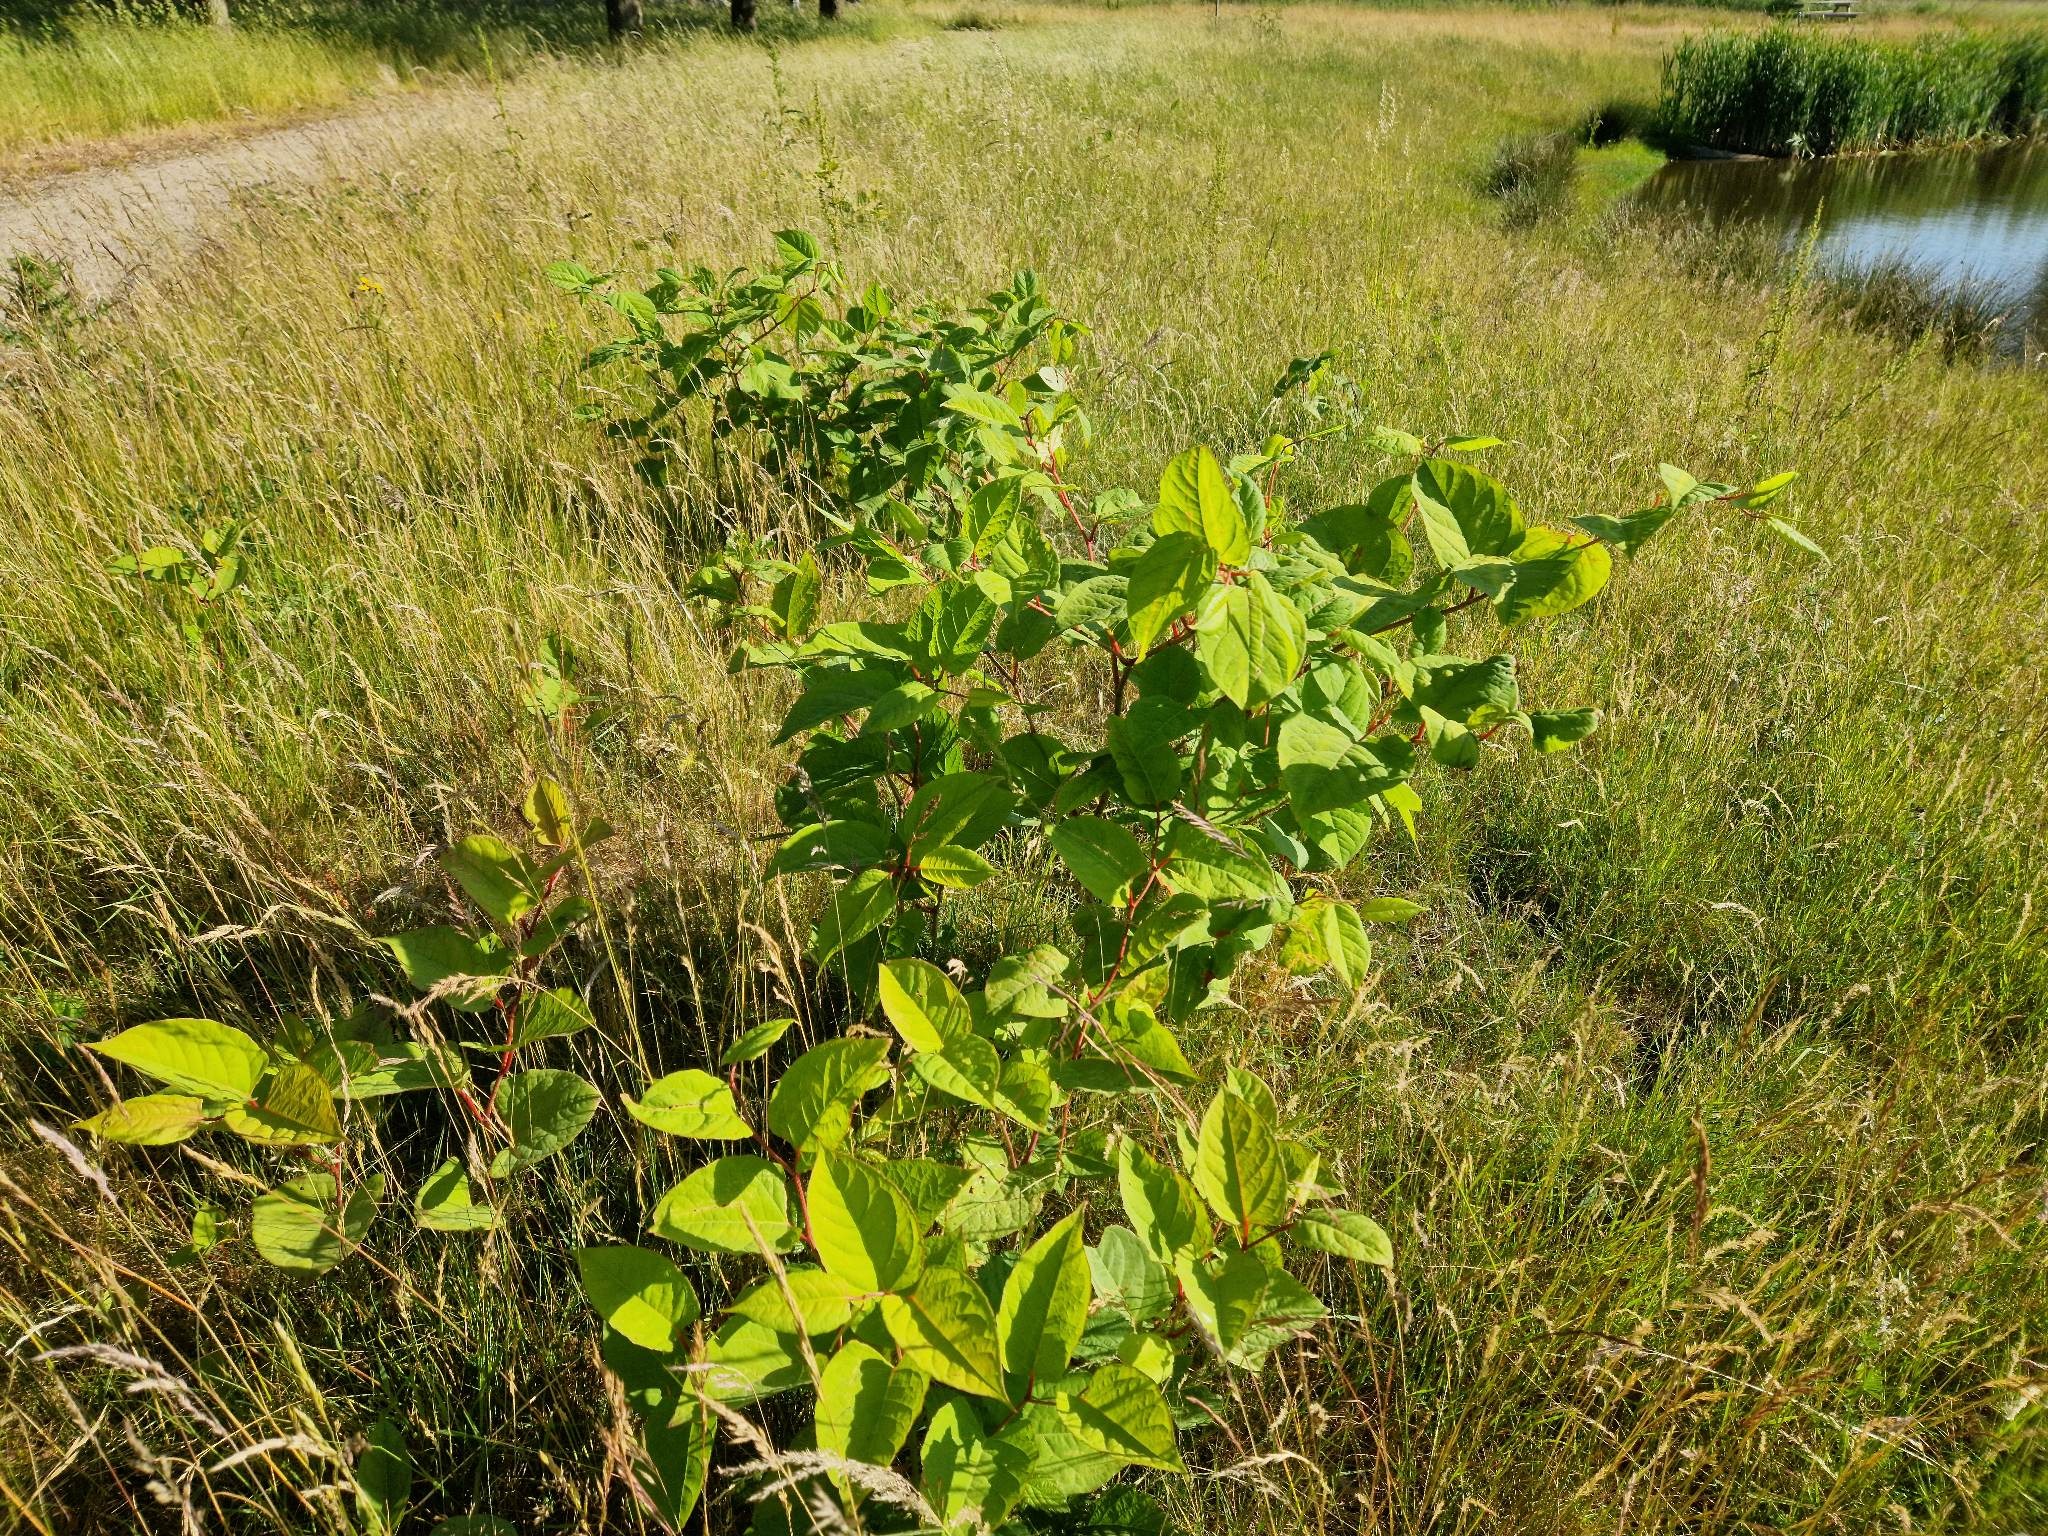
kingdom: Plantae
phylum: Tracheophyta
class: Magnoliopsida
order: Caryophyllales
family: Polygonaceae
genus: Reynoutria
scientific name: Reynoutria japonica
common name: Japan-pileurt
